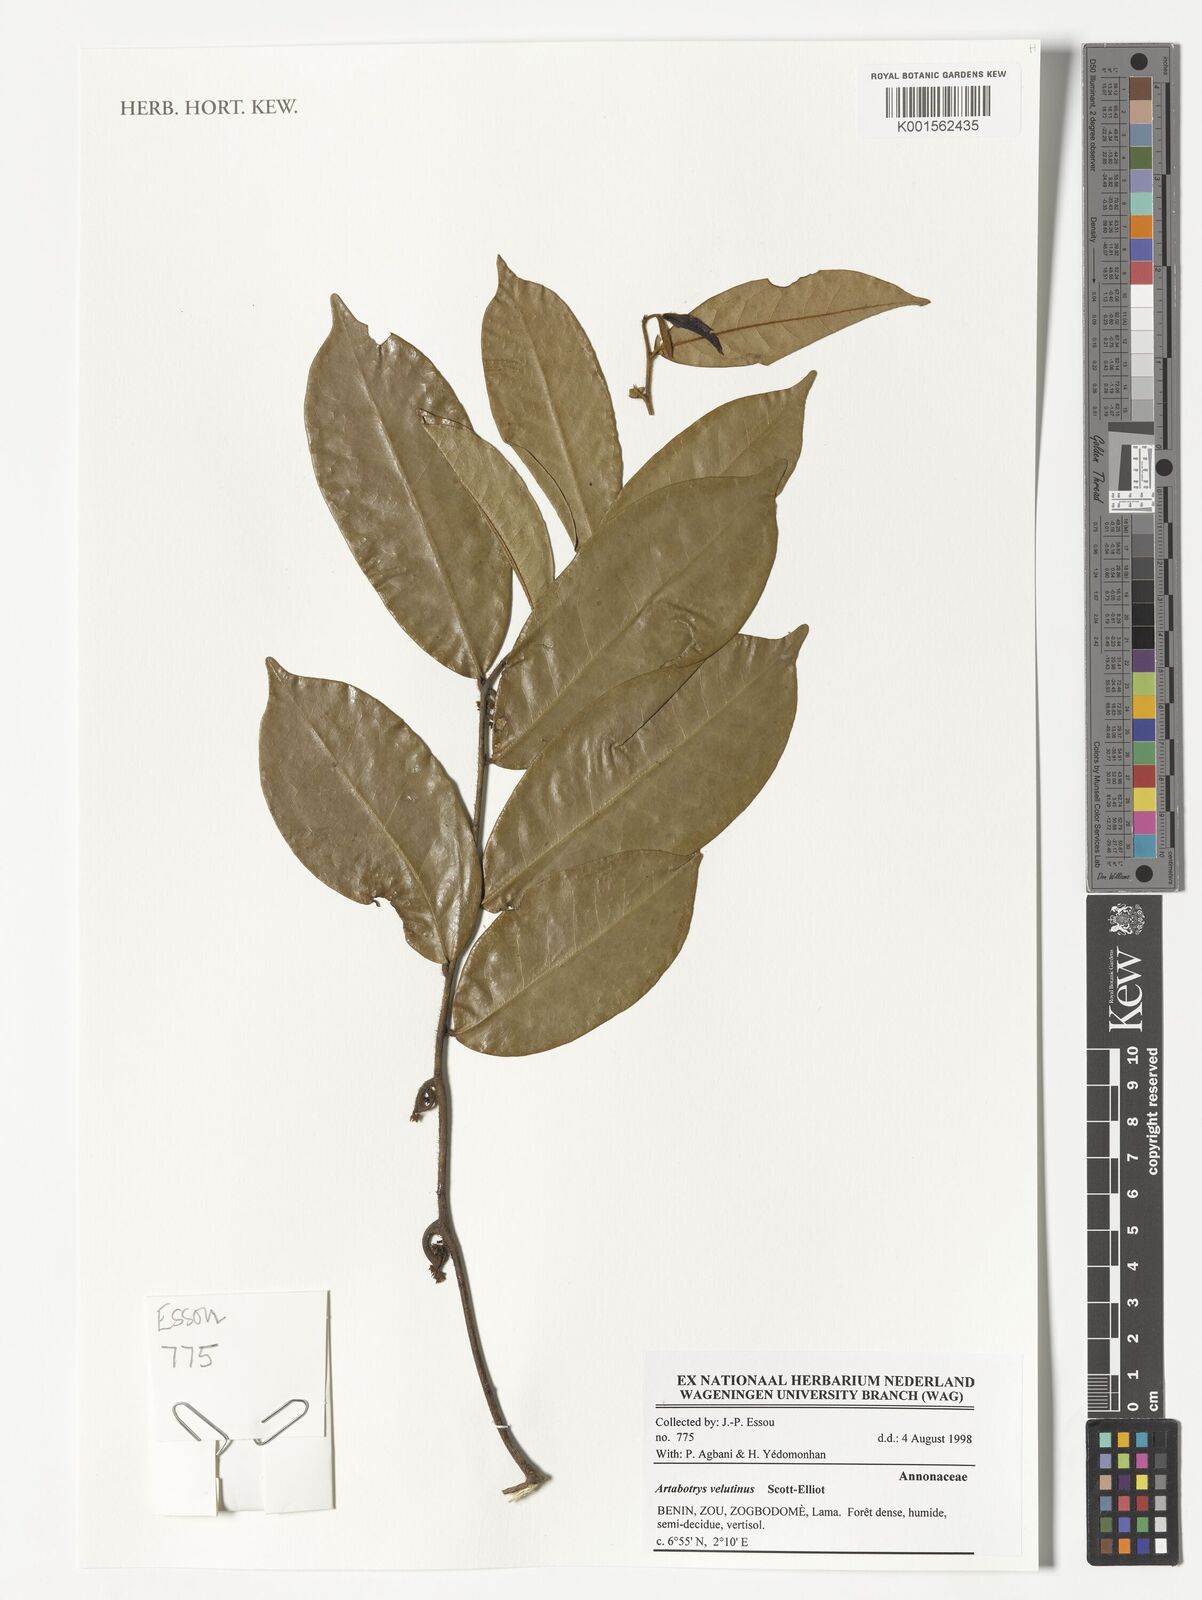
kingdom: Plantae
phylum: Tracheophyta
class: Magnoliopsida
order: Magnoliales
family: Annonaceae
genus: Artabotrys
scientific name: Artabotrys velutinus
